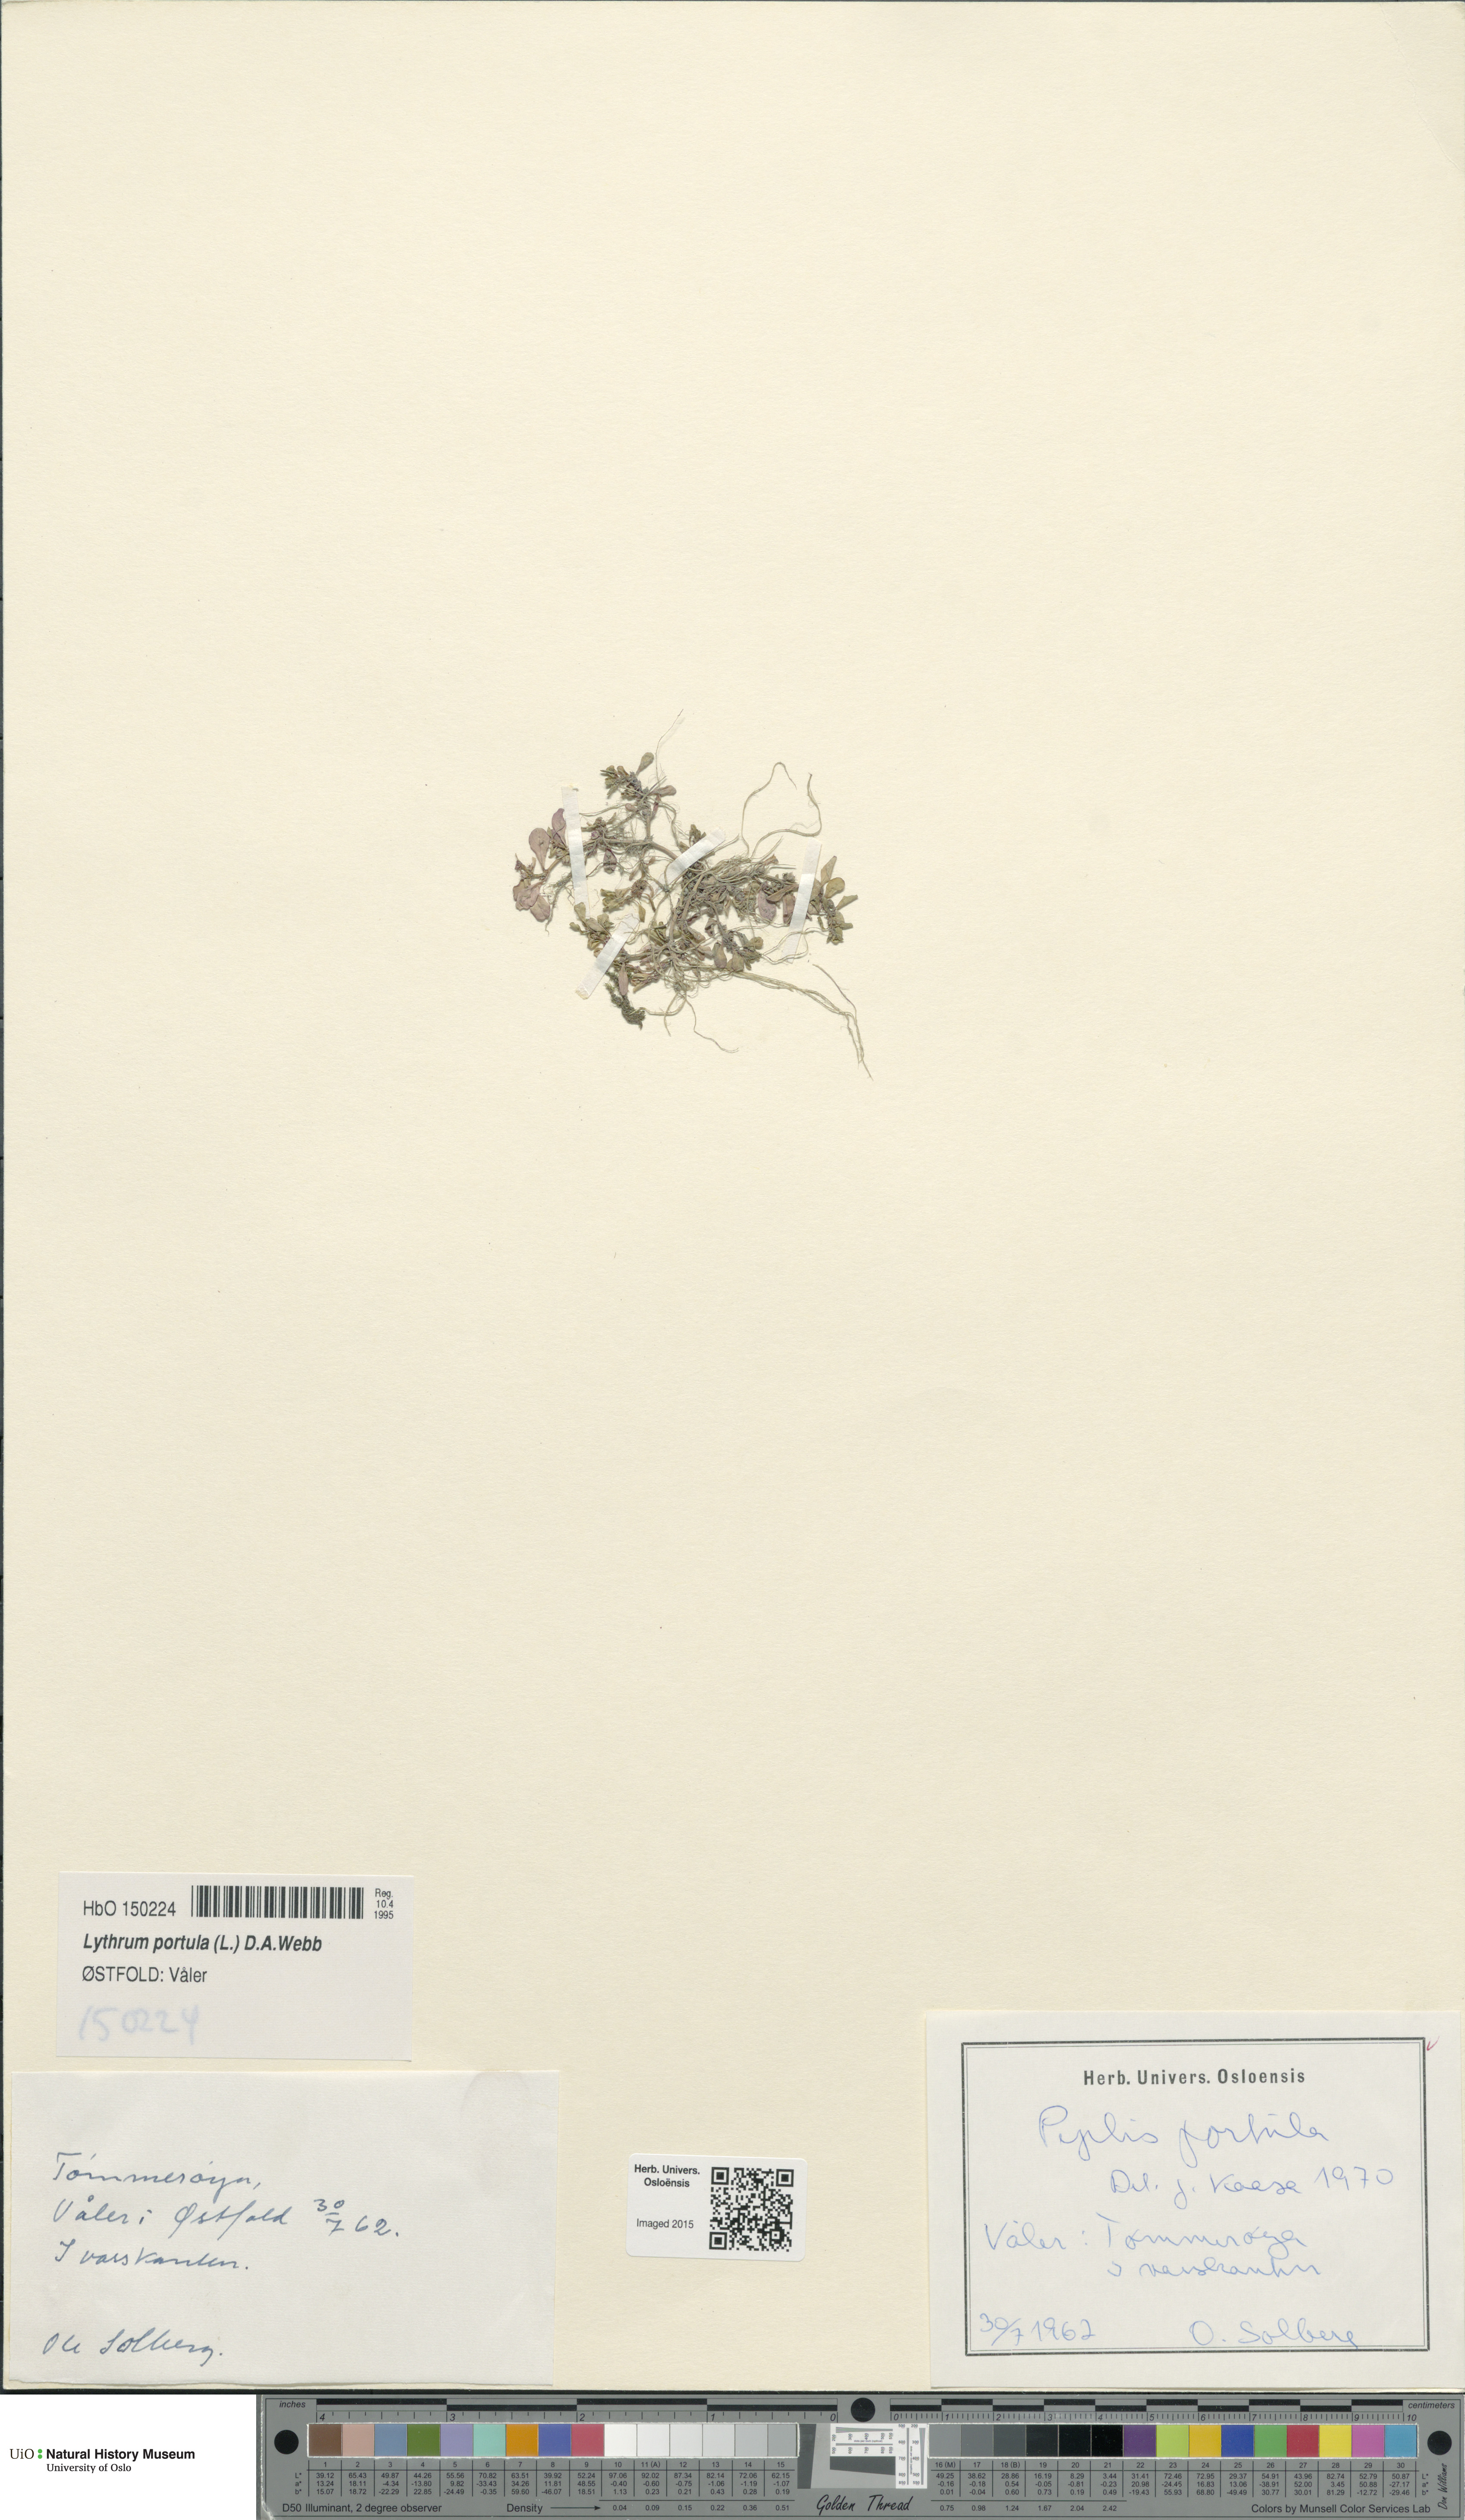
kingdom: Plantae
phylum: Tracheophyta
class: Magnoliopsida
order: Myrtales
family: Lythraceae
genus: Lythrum
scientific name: Lythrum portula
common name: Water purslane
